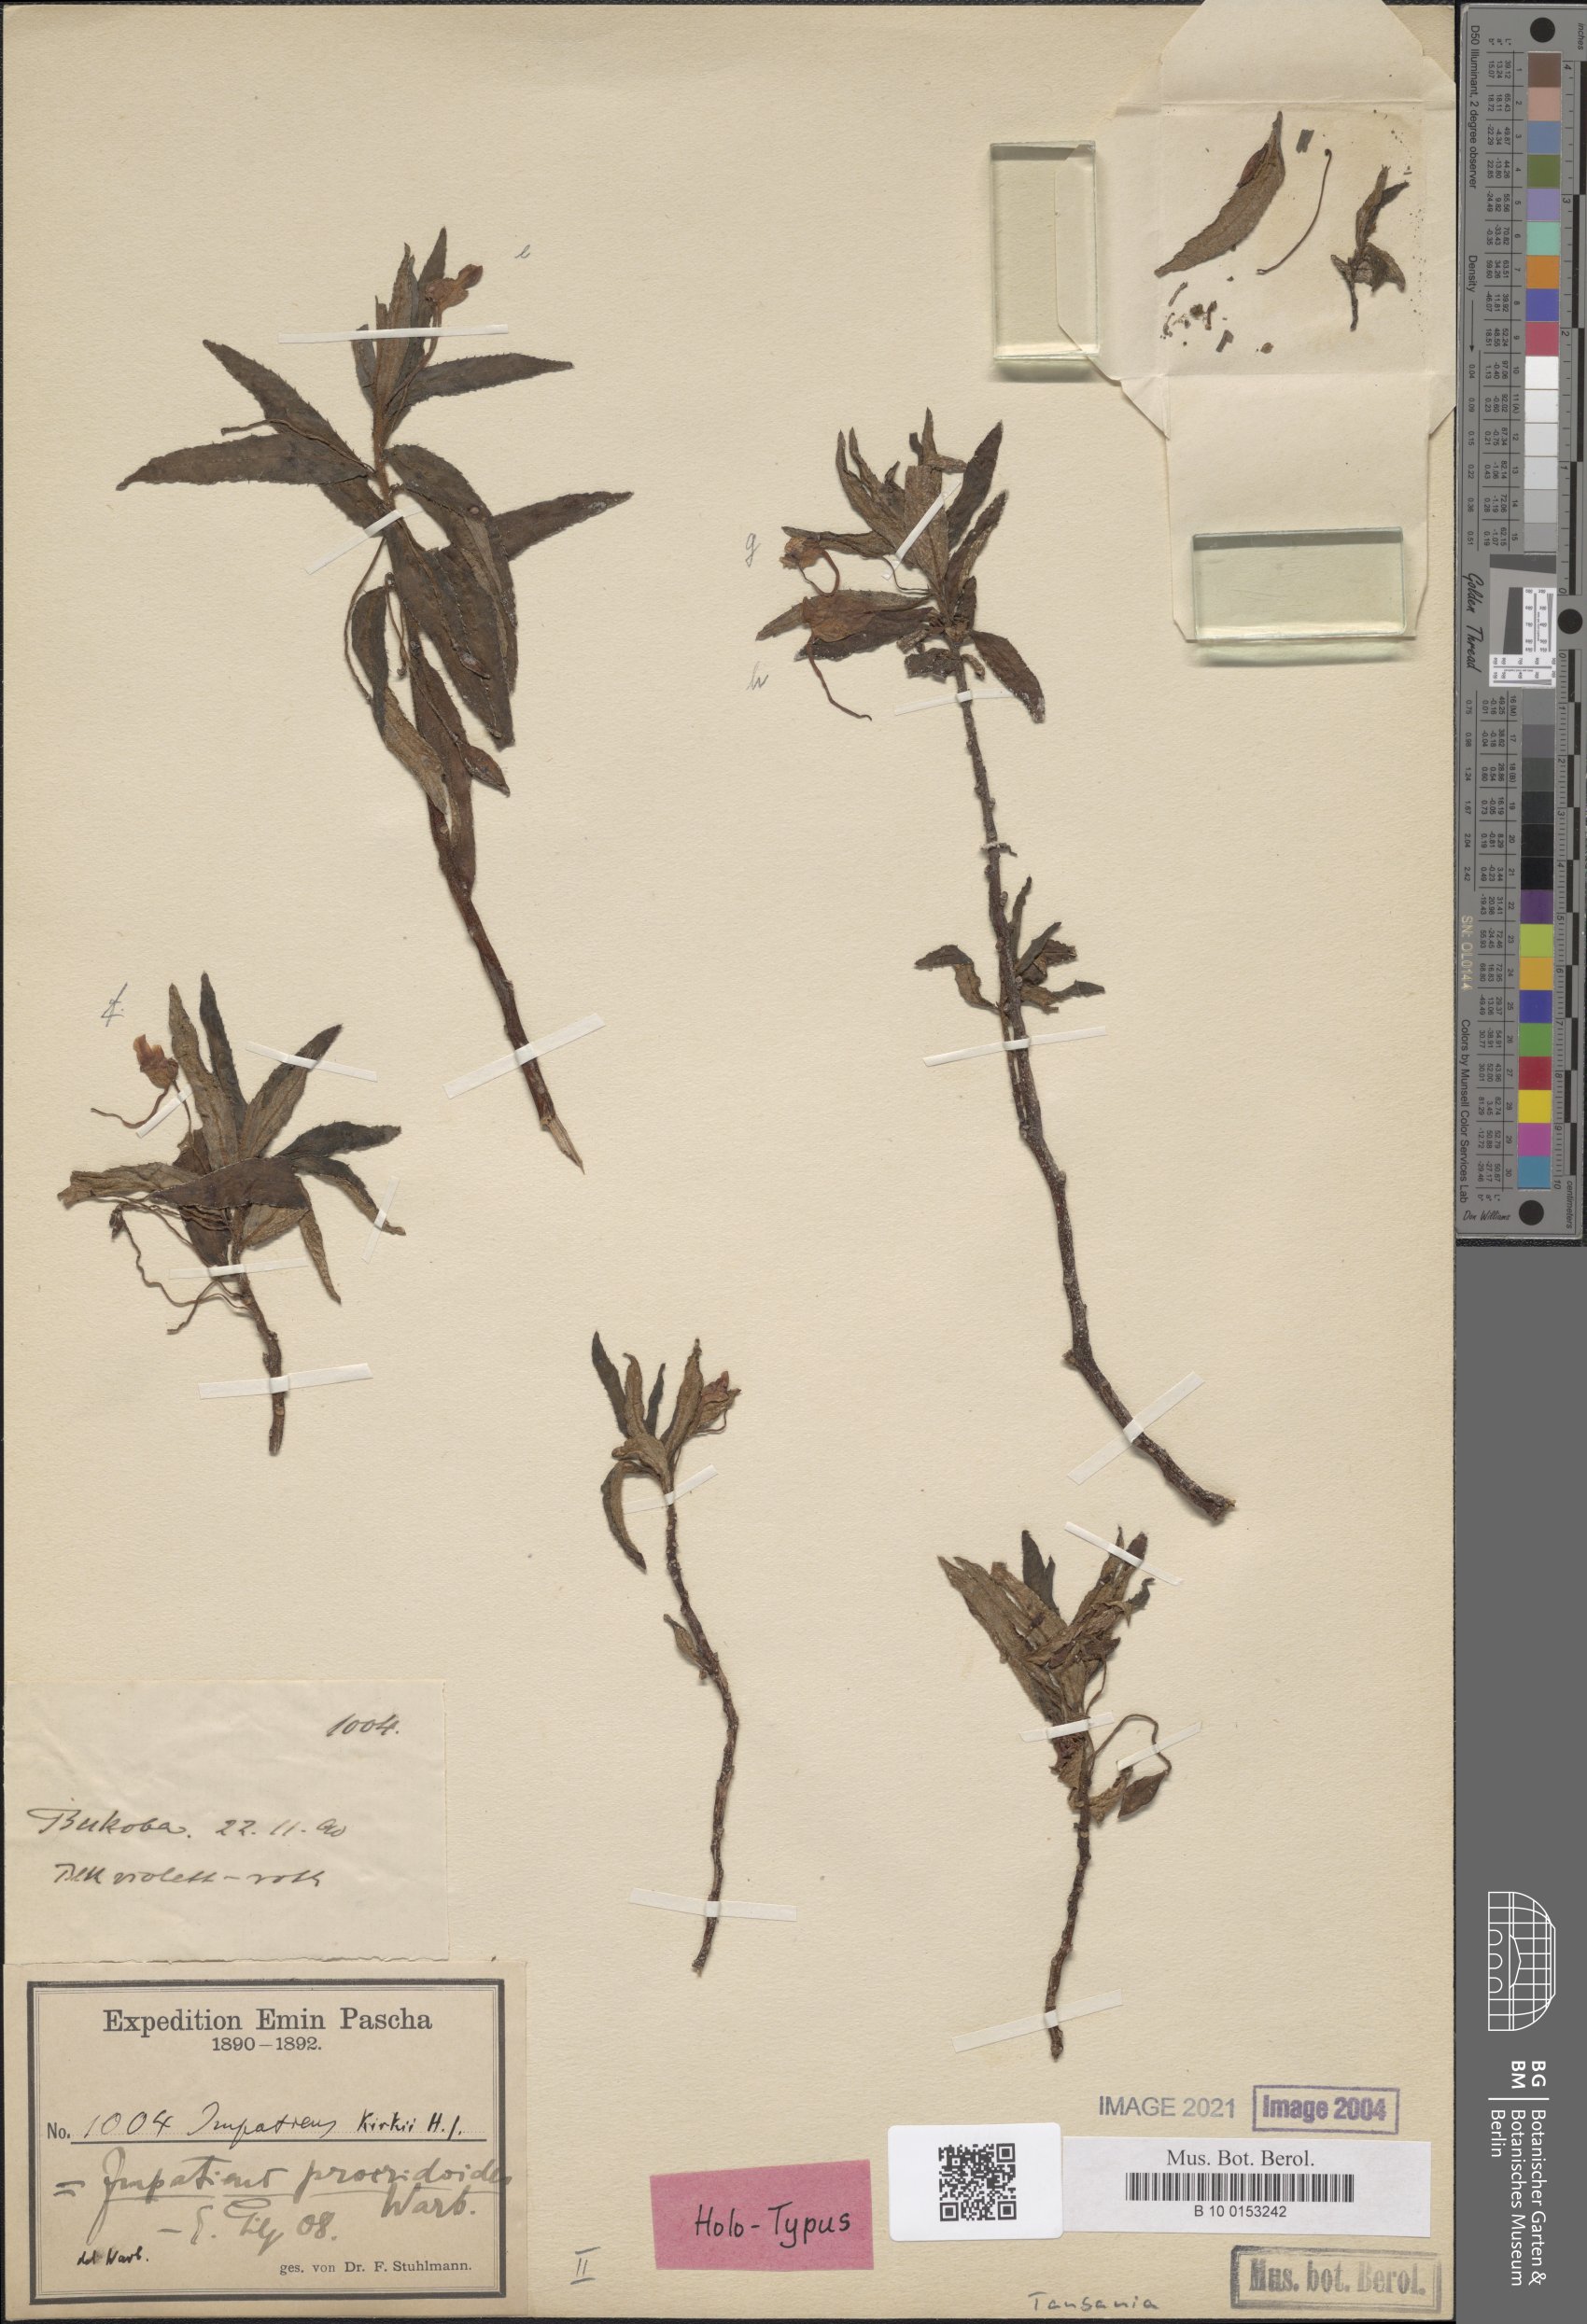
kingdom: Plantae
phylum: Tracheophyta
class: Magnoliopsida
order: Ericales
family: Balsaminaceae
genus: Impatiens
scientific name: Impatiens assurgens
